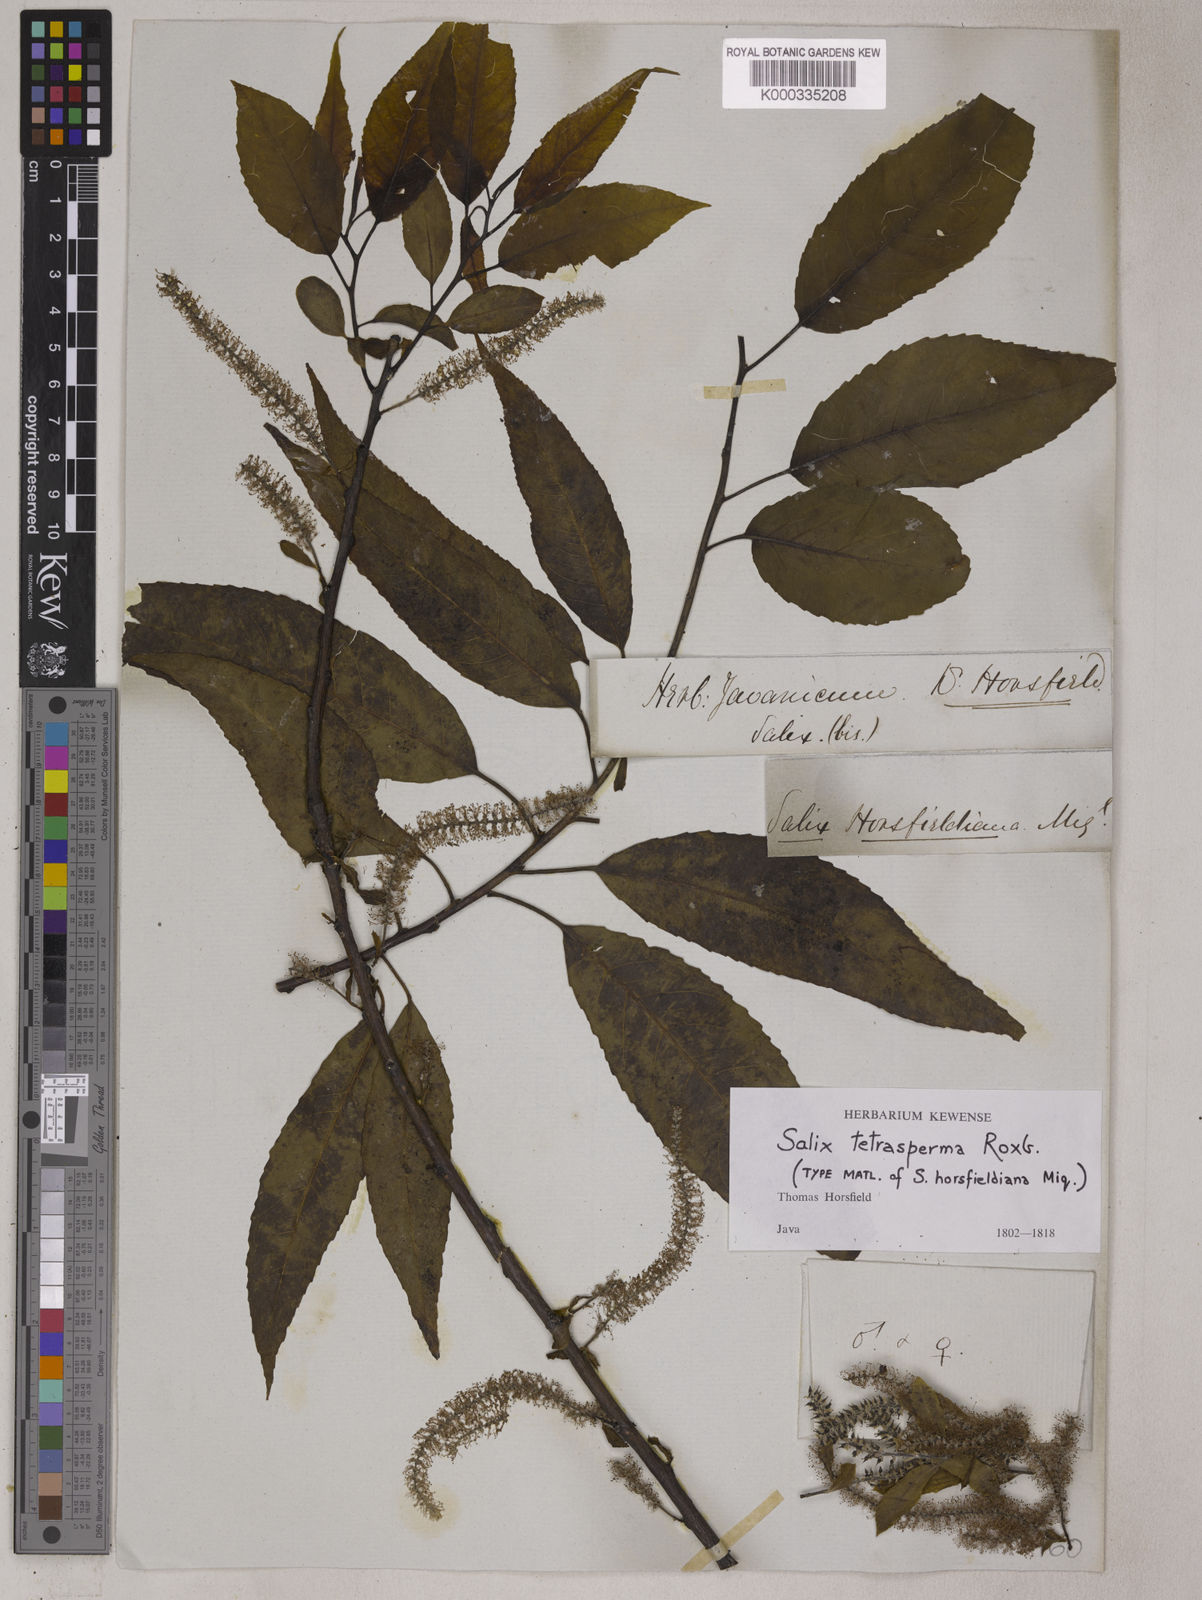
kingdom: Plantae
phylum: Tracheophyta
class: Magnoliopsida
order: Malpighiales
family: Salicaceae
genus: Salix
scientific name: Salix tetrasperma
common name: Indian willow
